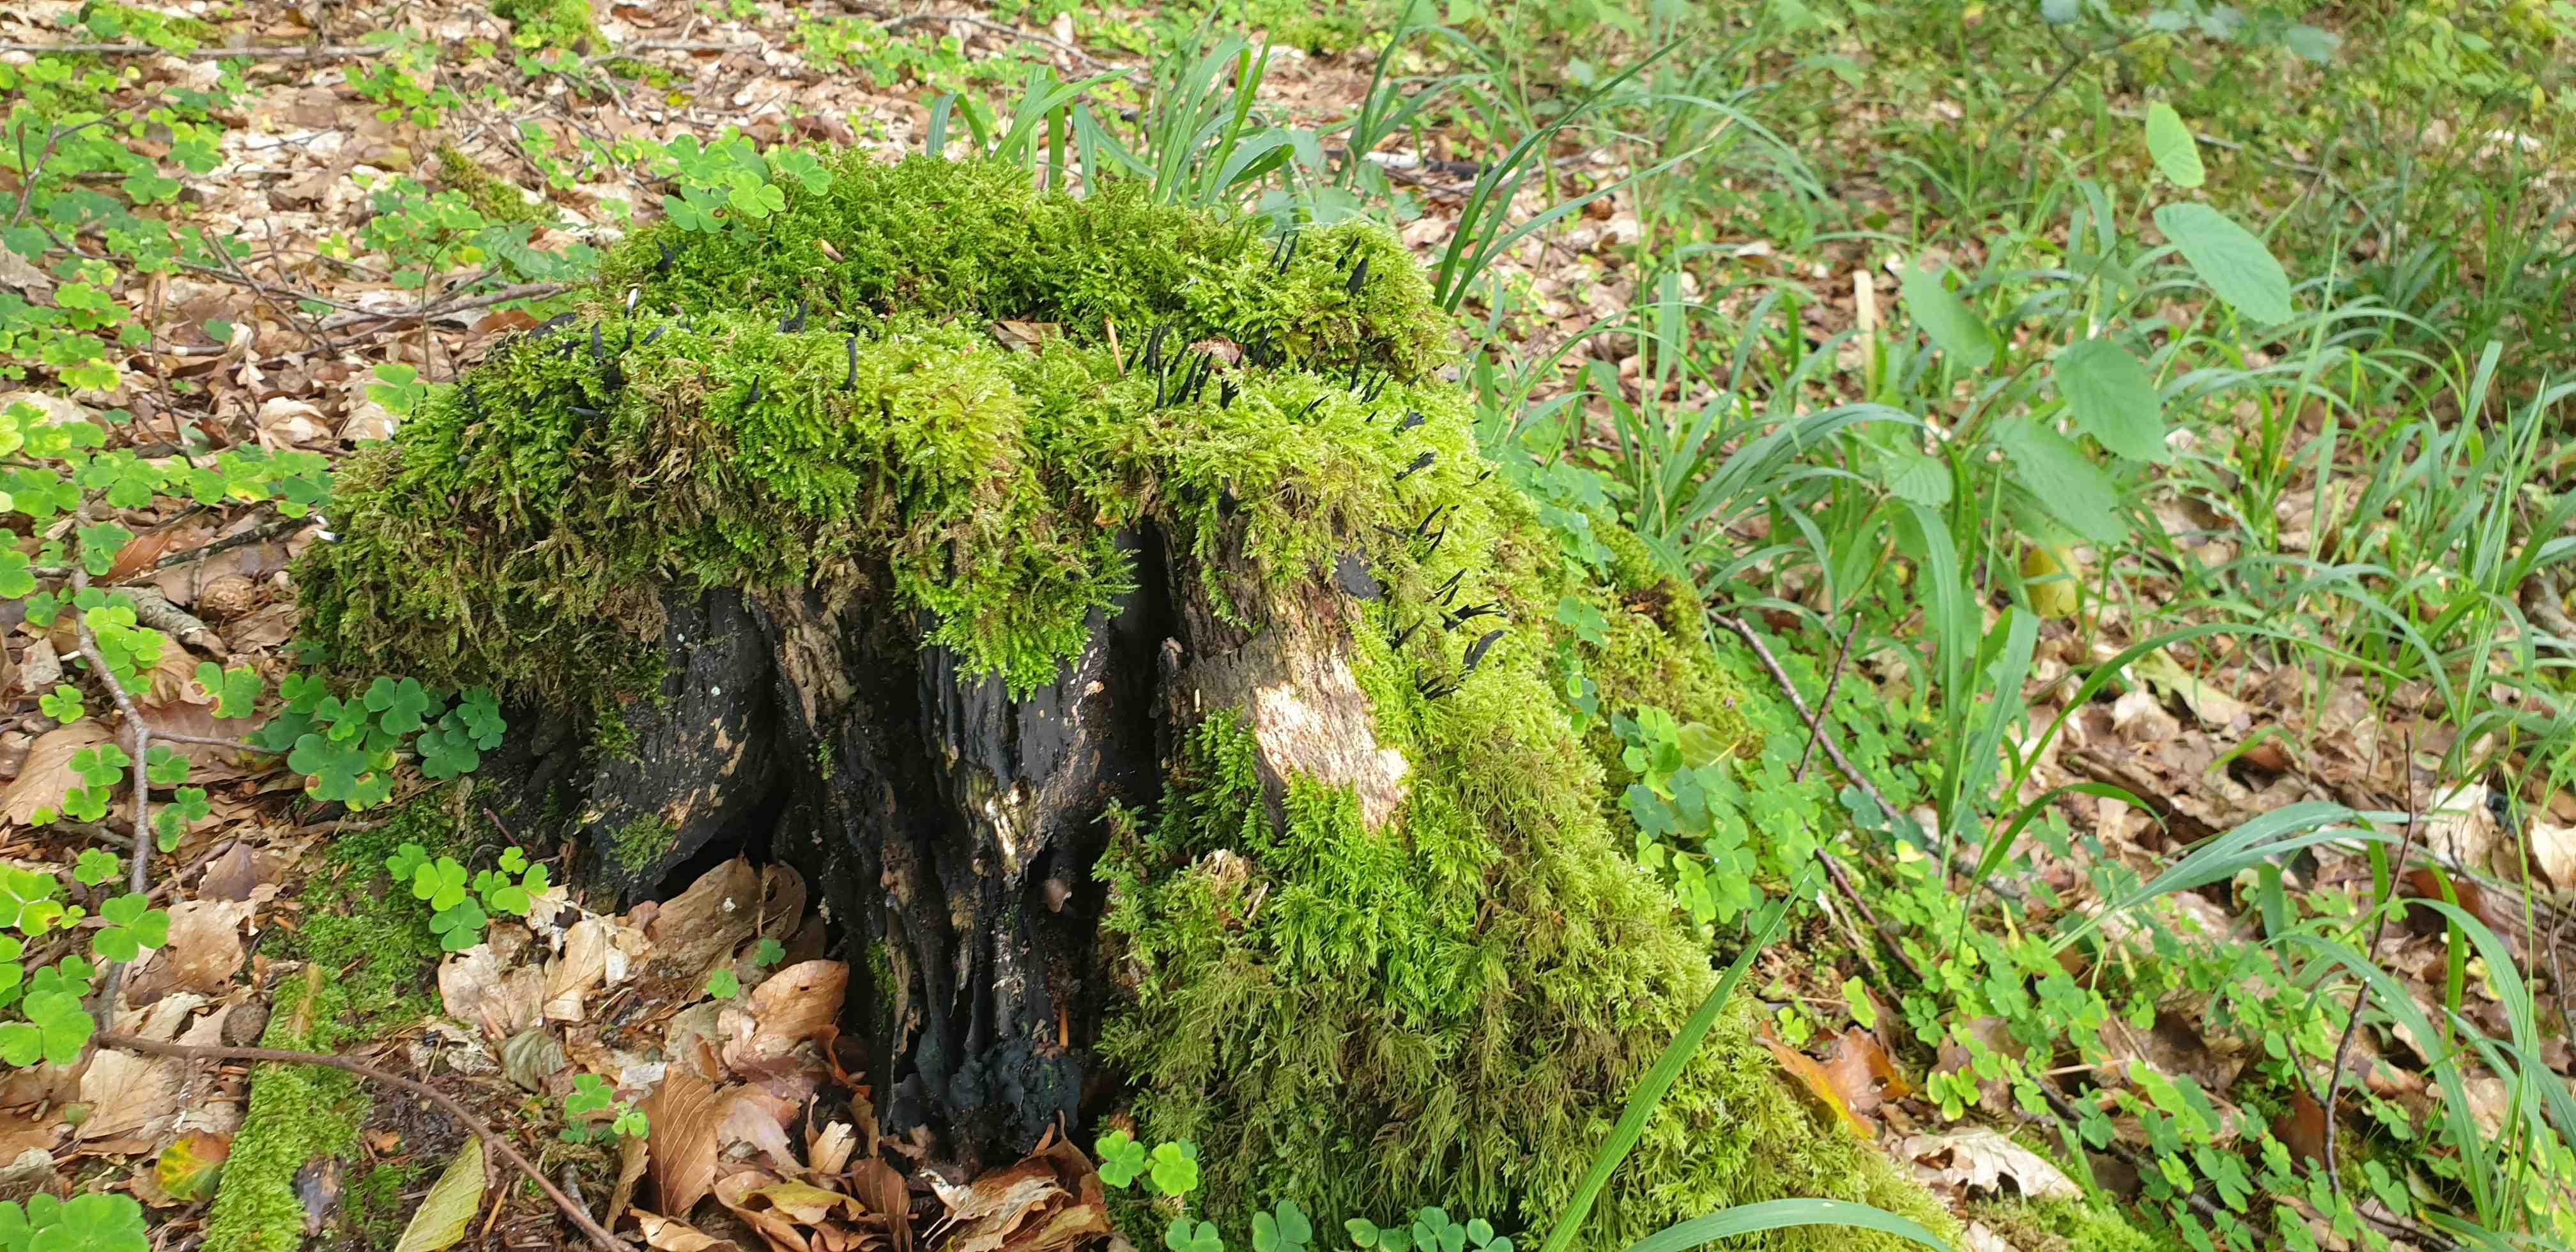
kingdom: Fungi
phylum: Ascomycota
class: Sordariomycetes
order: Xylariales
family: Xylariaceae
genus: Xylaria
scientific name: Xylaria hypoxylon
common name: grenet stødsvamp
